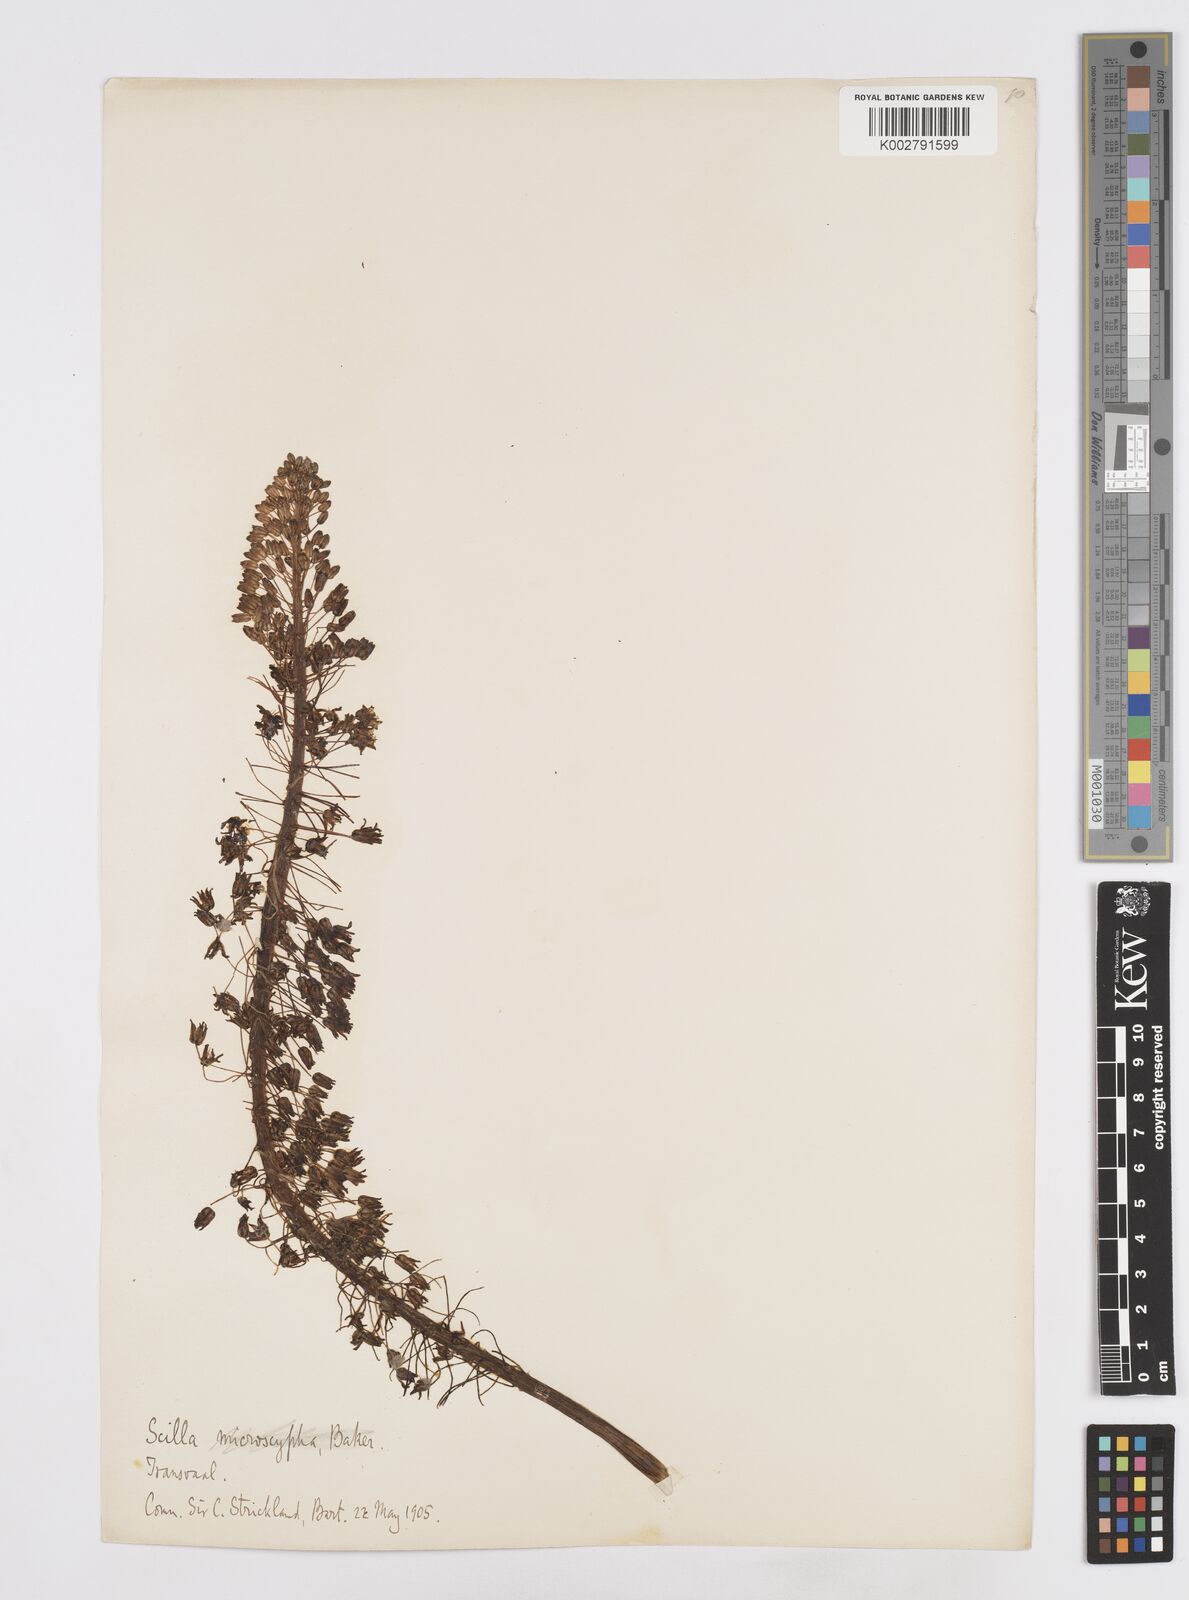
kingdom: Plantae
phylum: Tracheophyta
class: Liliopsida
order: Asparagales
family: Asparagaceae
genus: Scilla
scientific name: Scilla
